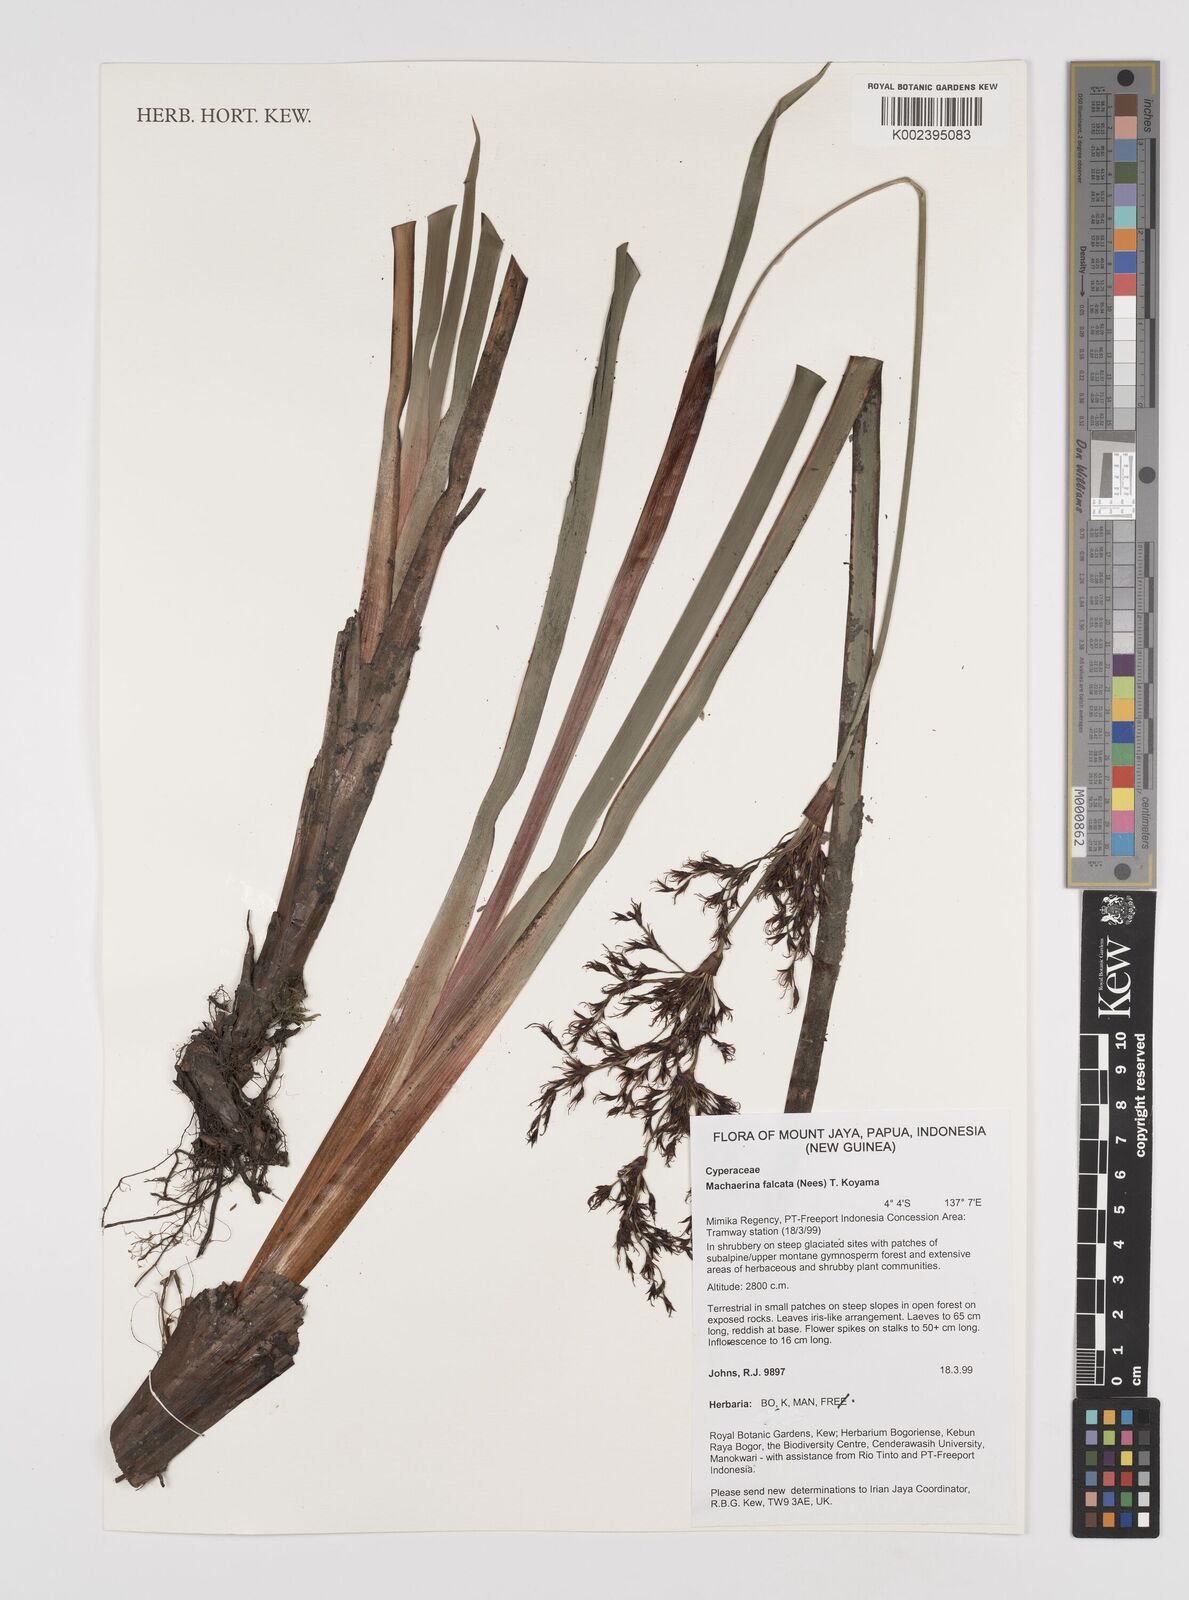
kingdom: Plantae
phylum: Tracheophyta
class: Liliopsida
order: Poales
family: Cyperaceae
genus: Machaerina
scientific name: Machaerina falcata
